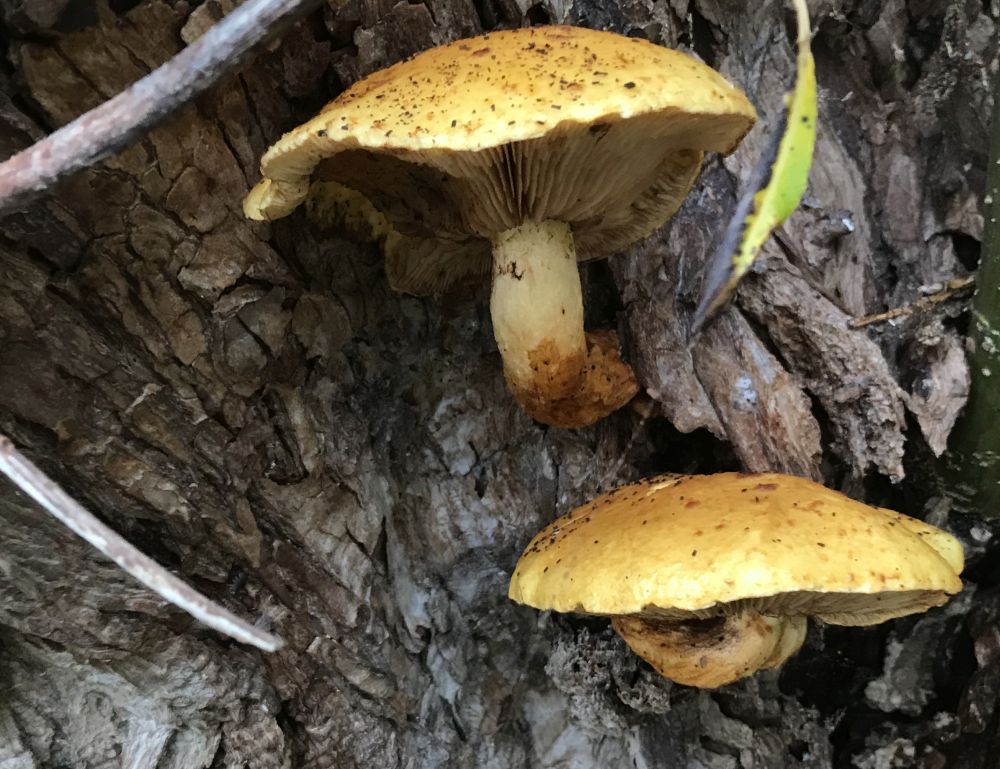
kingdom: Fungi
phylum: Basidiomycota
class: Agaricomycetes
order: Agaricales
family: Strophariaceae
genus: Pholiota
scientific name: Pholiota limonella
